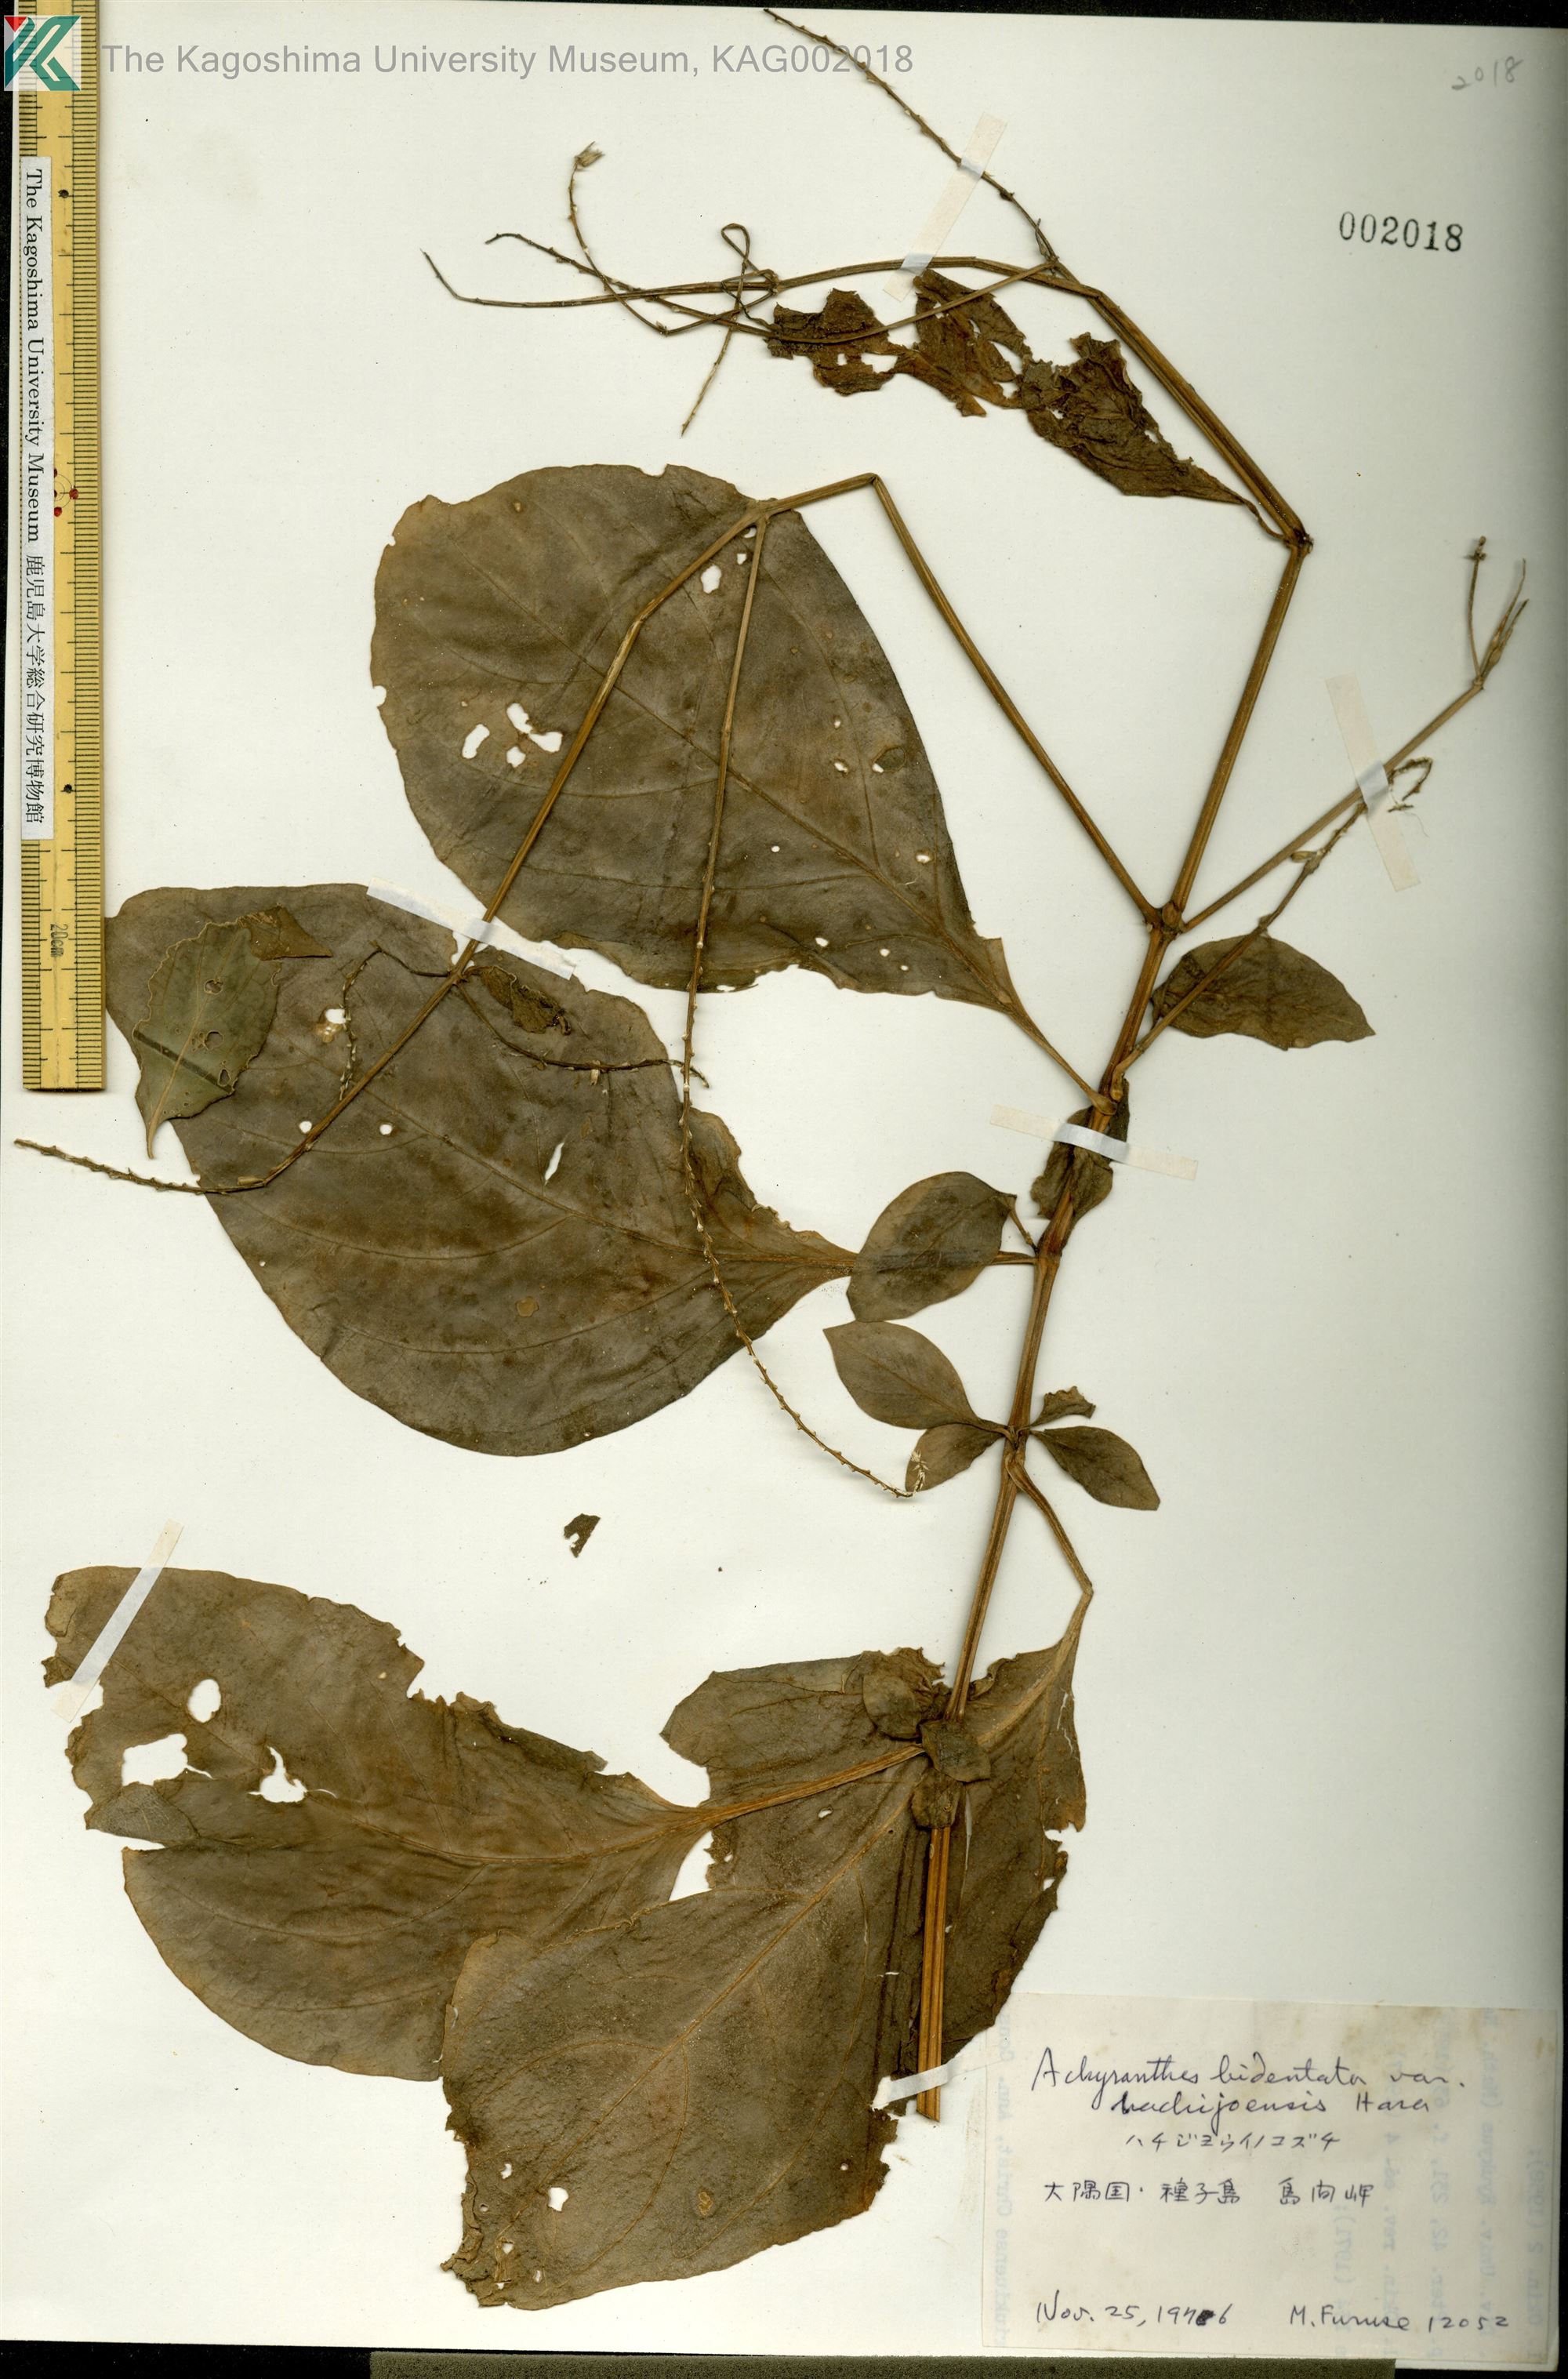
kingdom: Plantae
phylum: Tracheophyta
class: Magnoliopsida
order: Caryophyllales
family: Amaranthaceae
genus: Achyranthes
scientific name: Achyranthes bidentata
